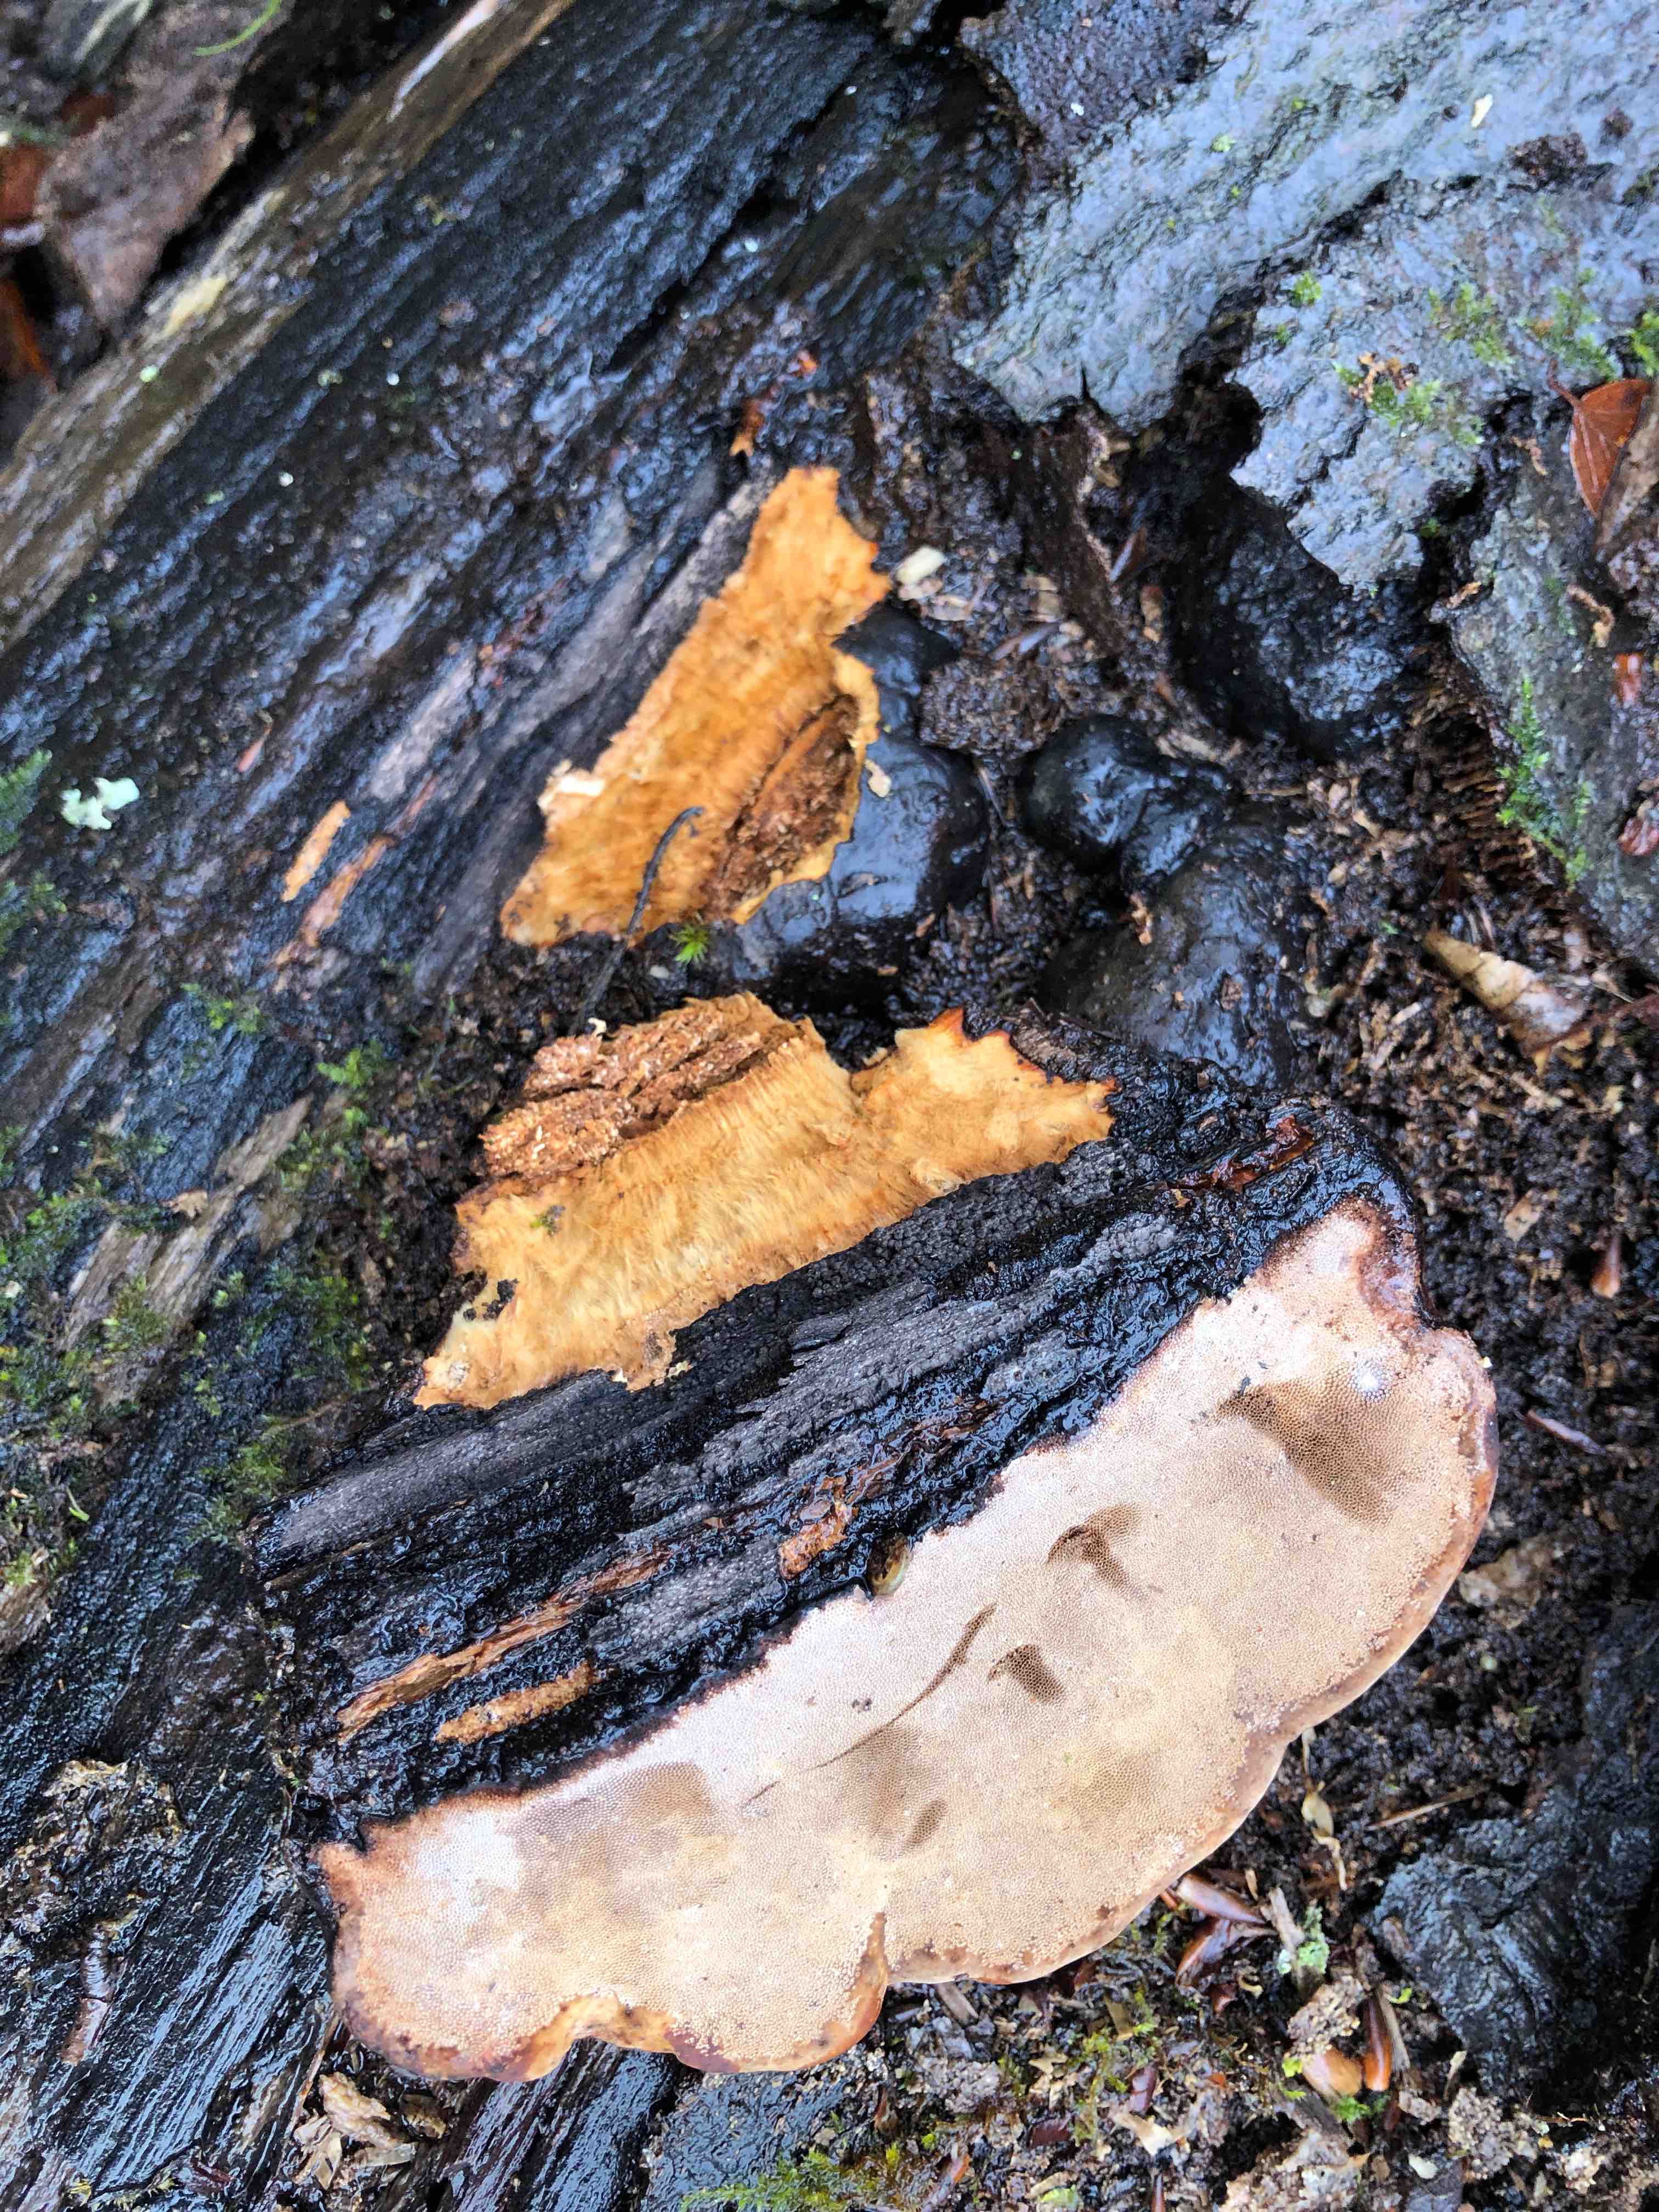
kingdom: Fungi
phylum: Basidiomycota
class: Agaricomycetes
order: Polyporales
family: Polyporaceae
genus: Fomes
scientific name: Fomes fomentarius
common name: tøndersvamp
